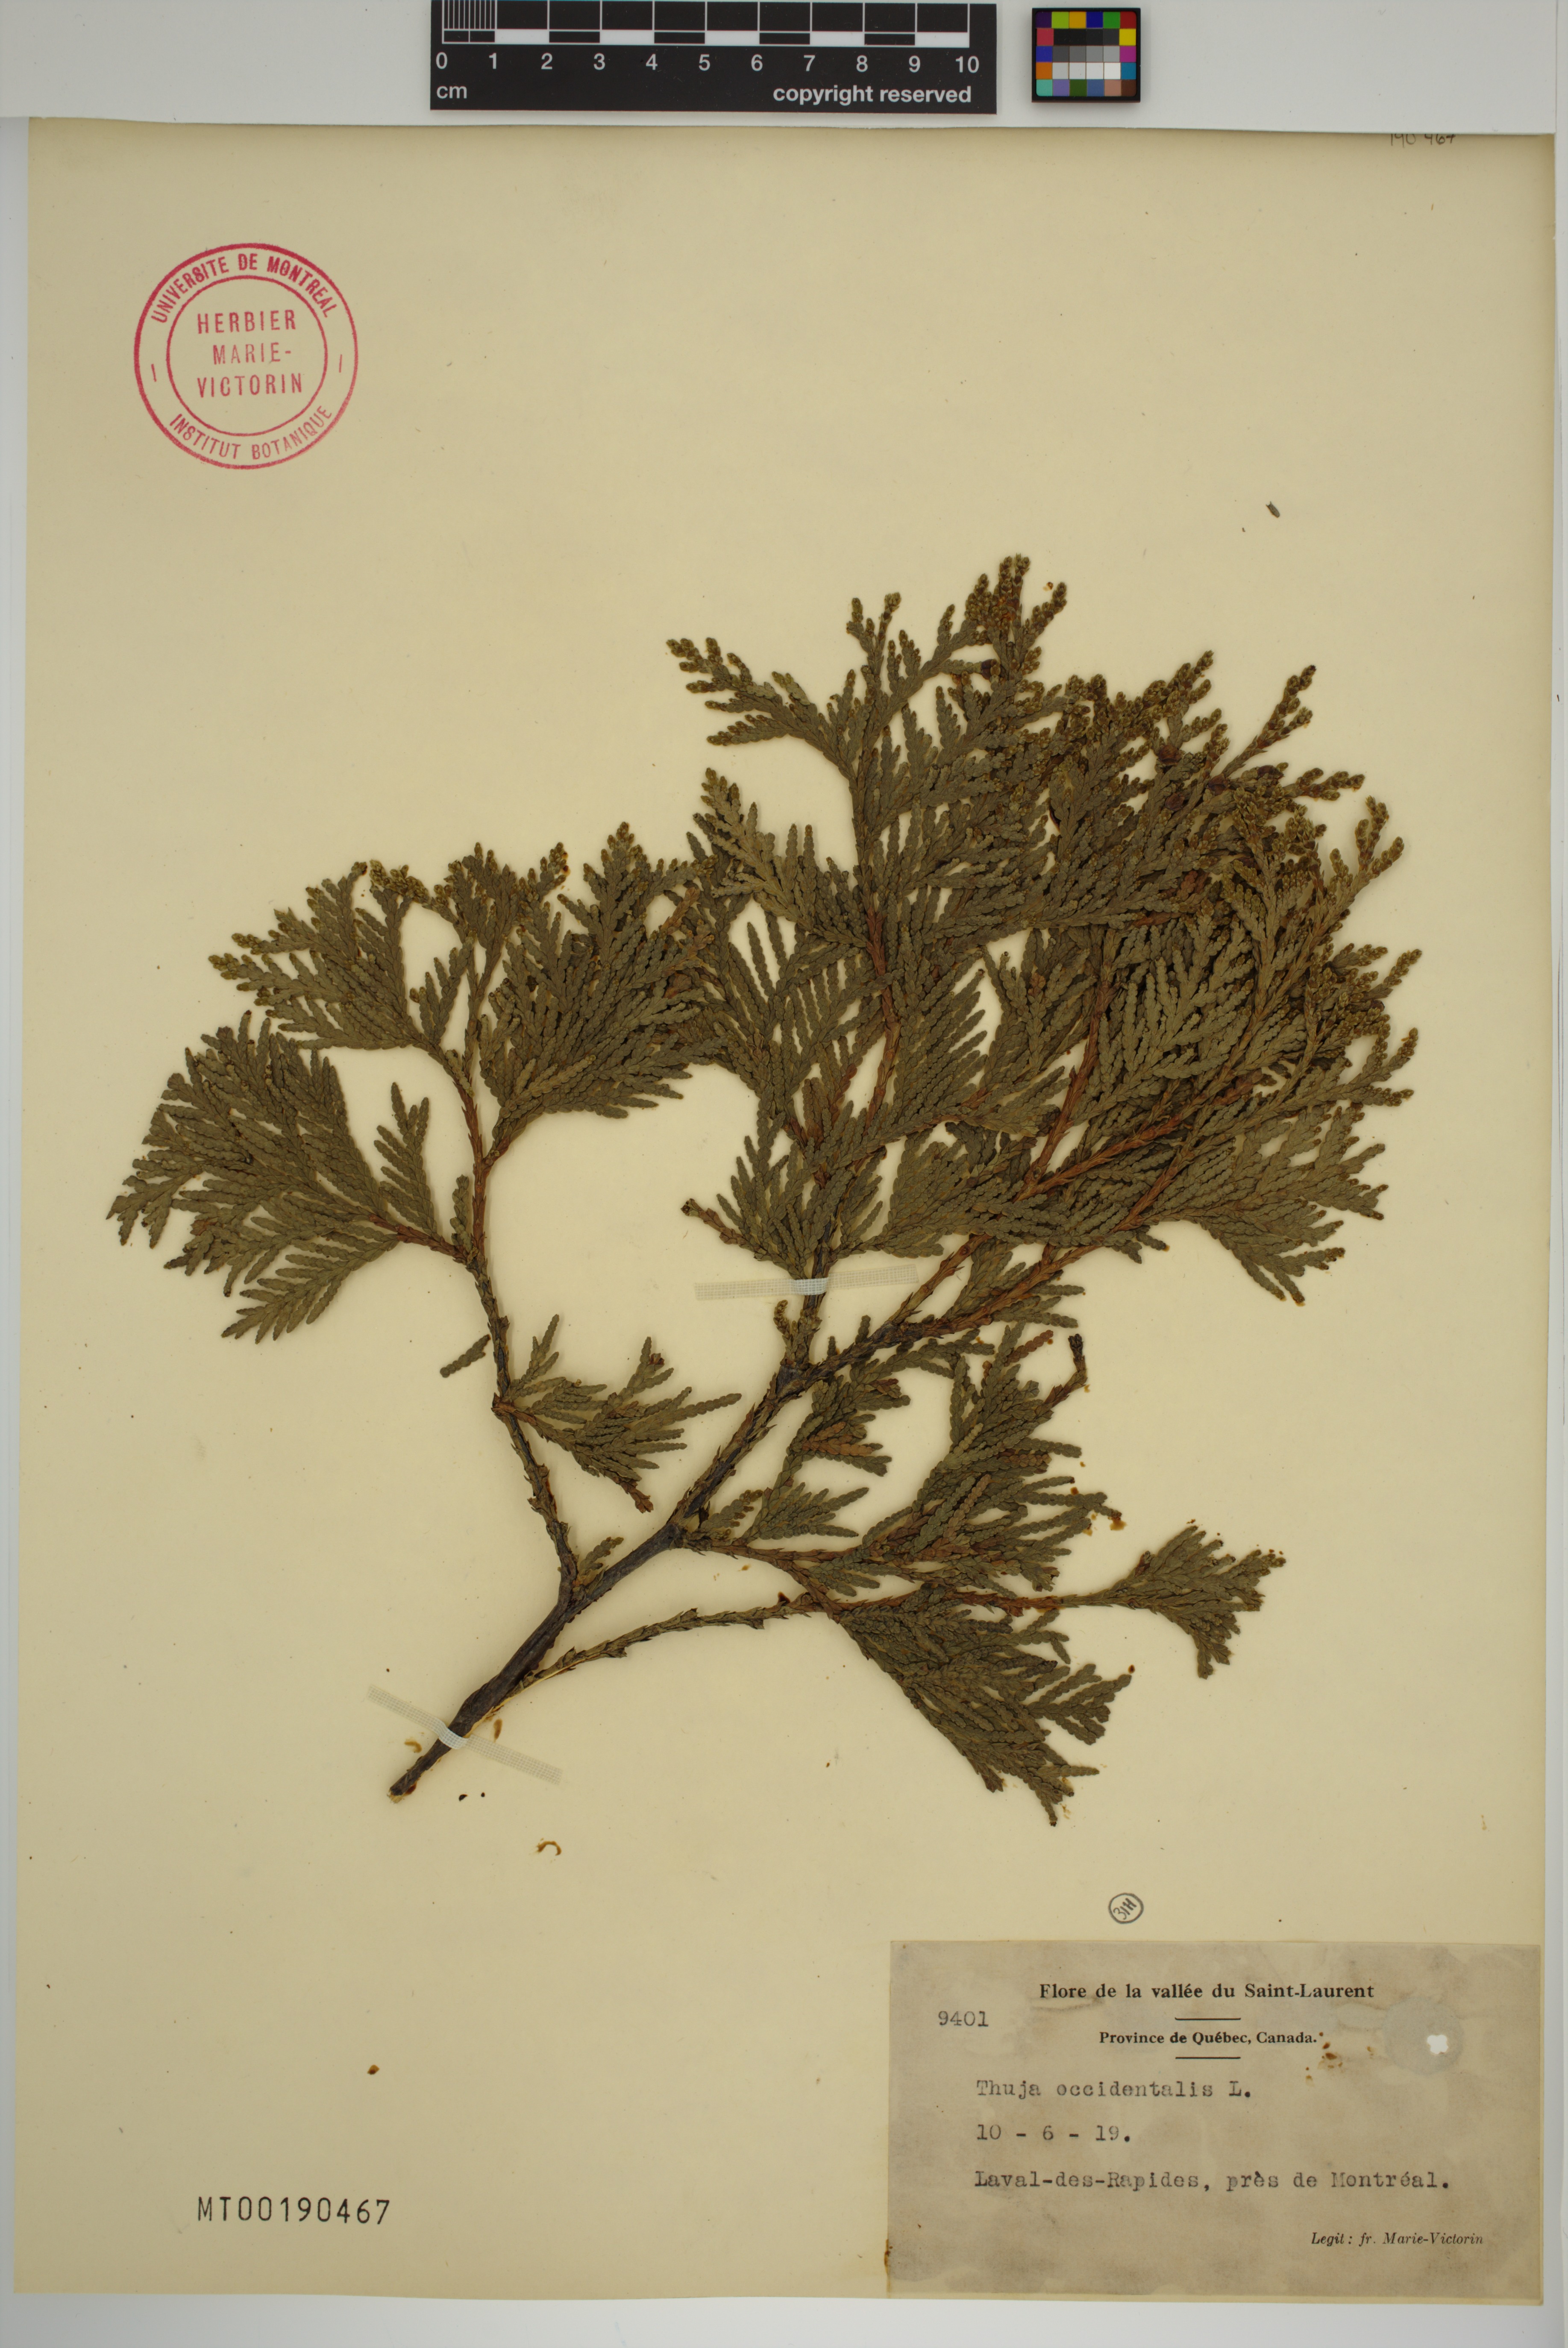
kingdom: Plantae
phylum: Tracheophyta
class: Pinopsida
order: Pinales
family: Cupressaceae
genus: Thuja
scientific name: Thuja occidentalis
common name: Northern white-cedar
